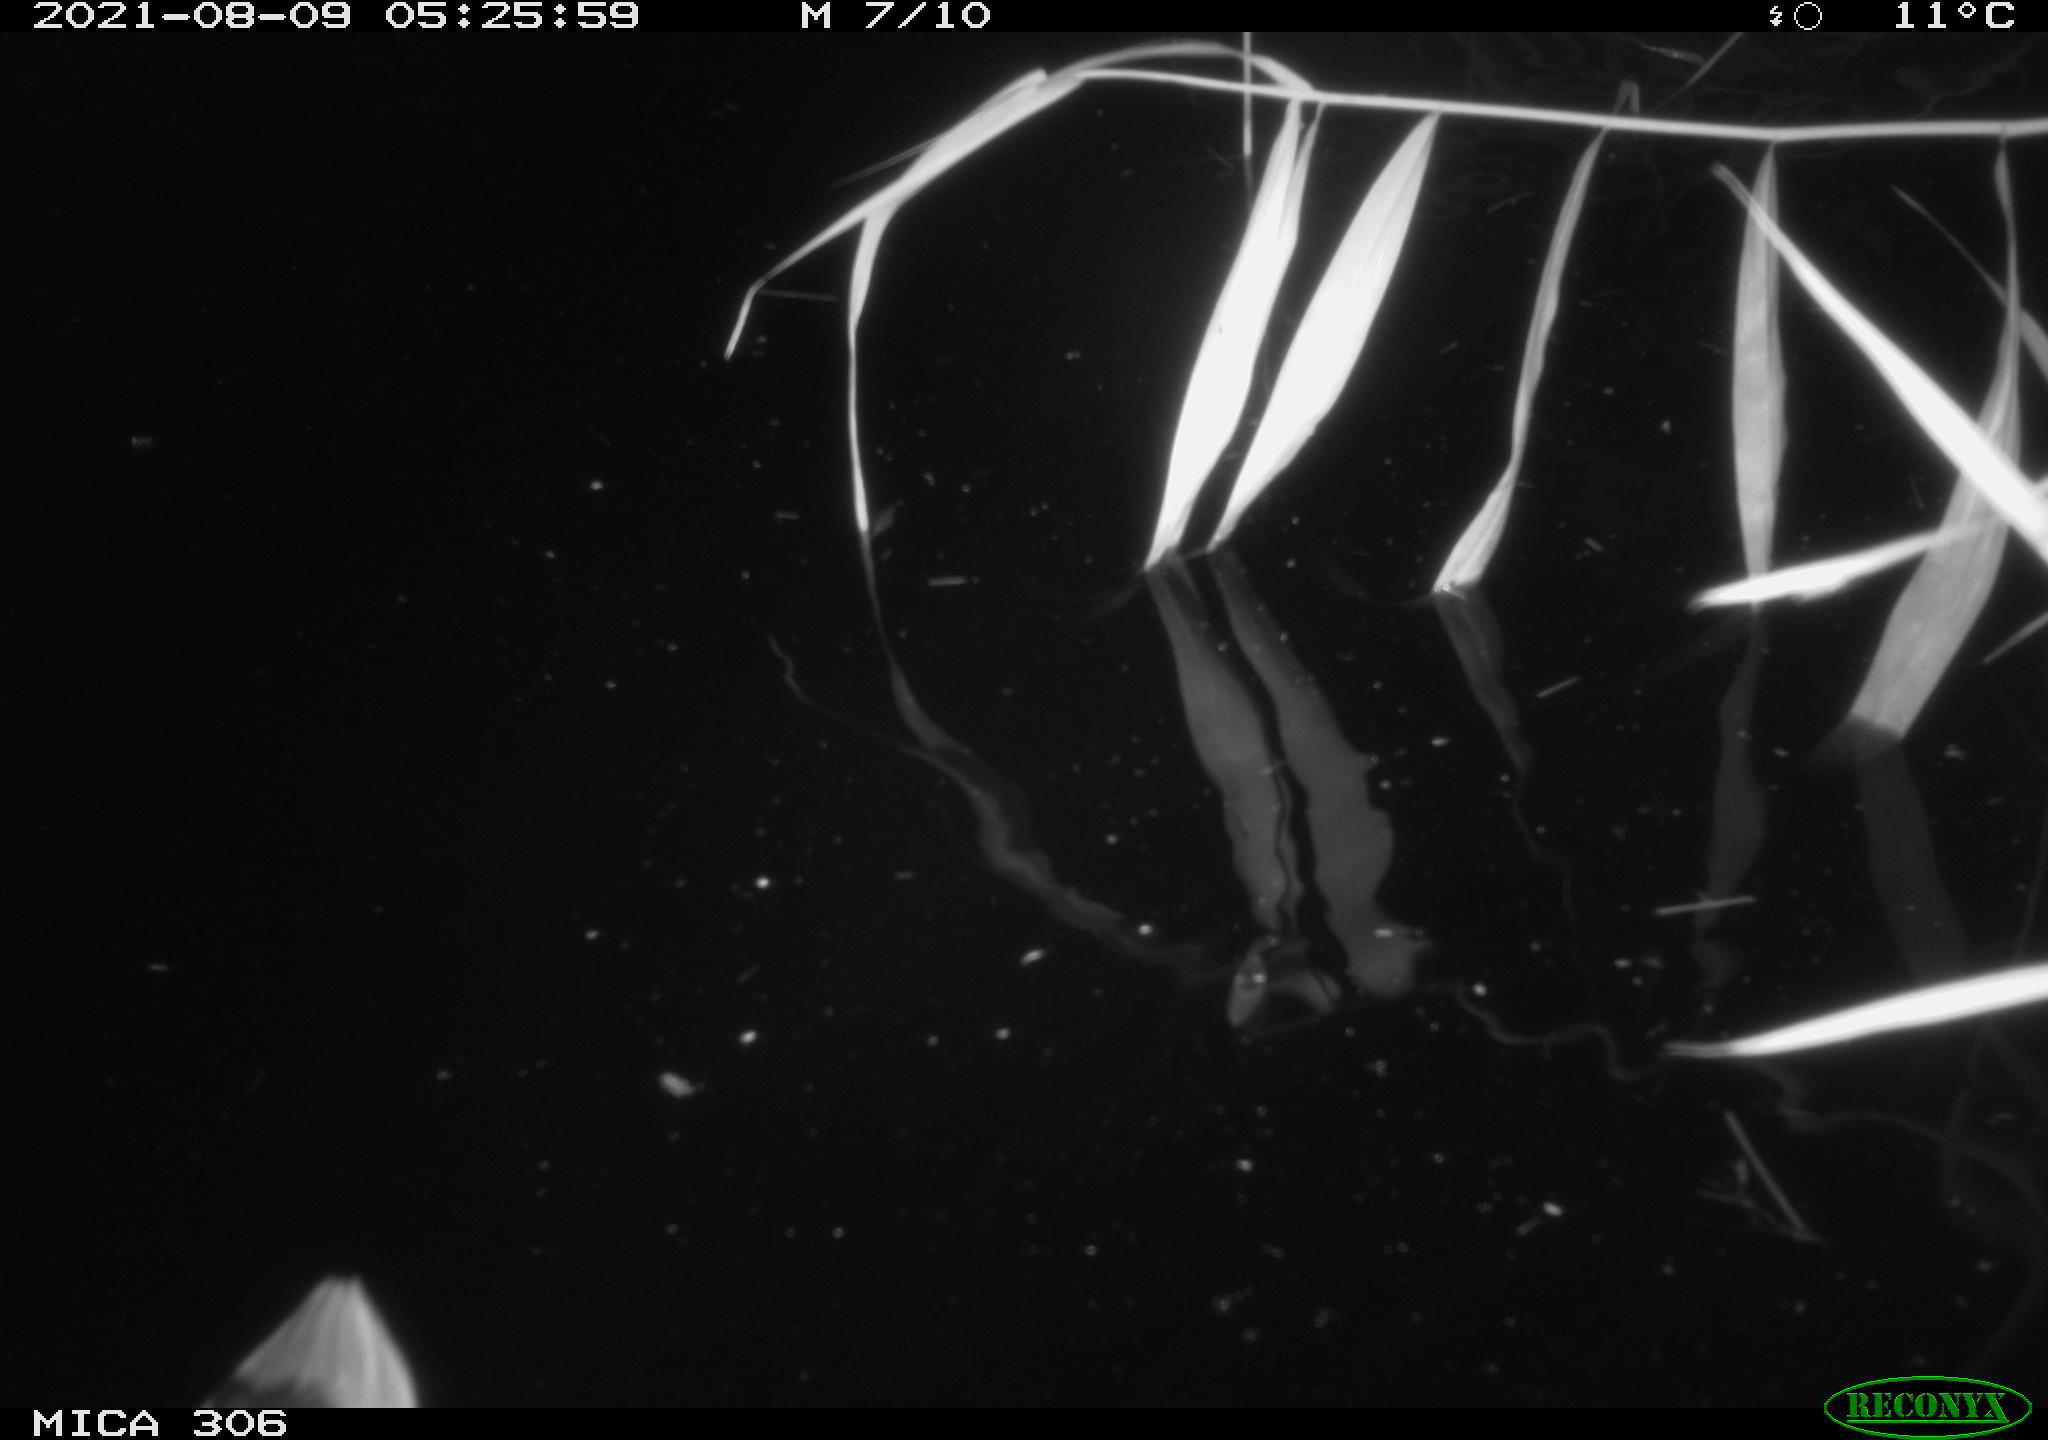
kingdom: Animalia
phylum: Chordata
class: Aves
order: Anseriformes
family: Anatidae
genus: Anas
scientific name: Anas
